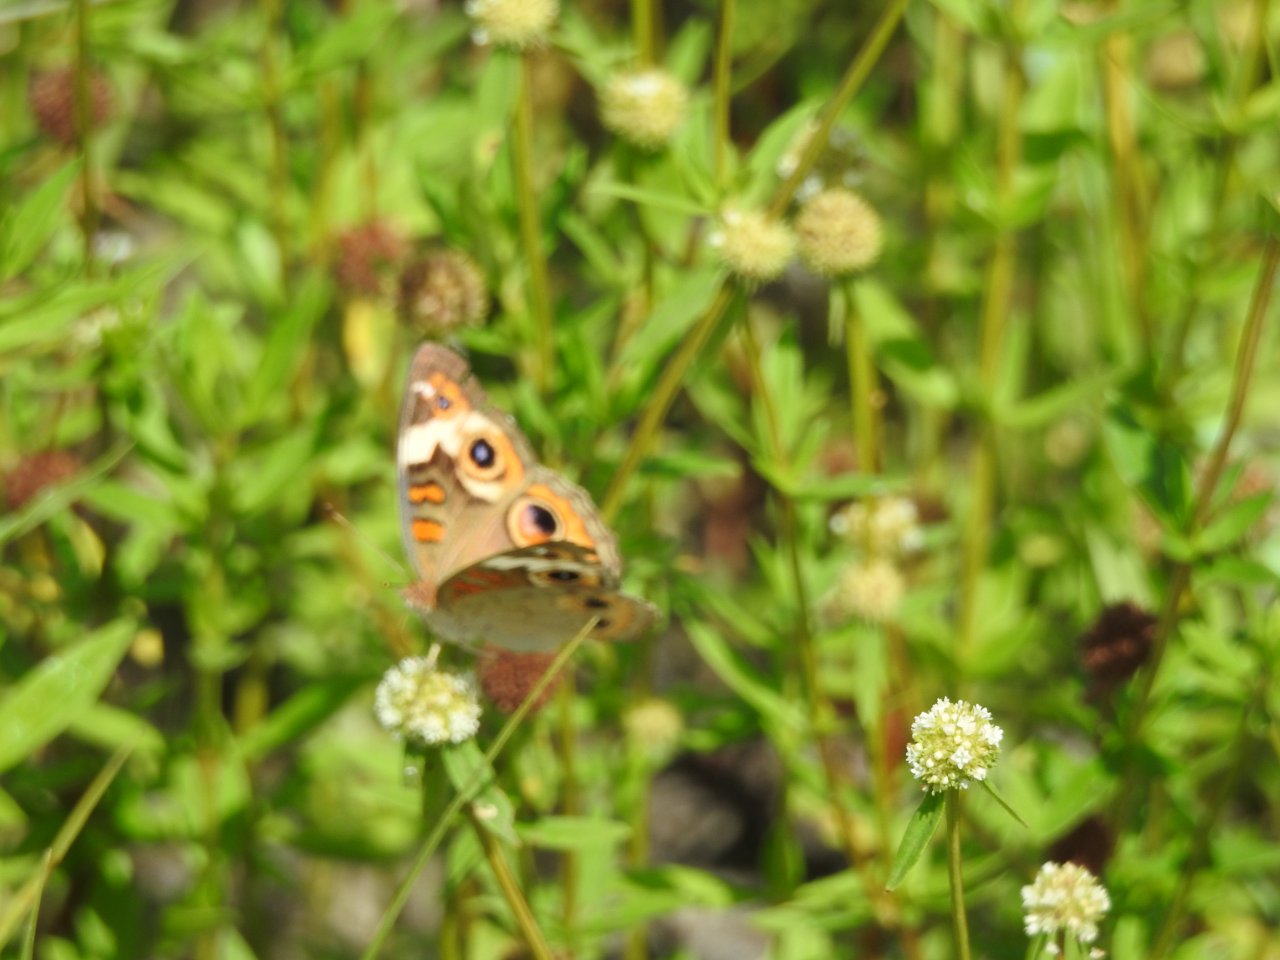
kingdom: Animalia
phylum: Arthropoda
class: Insecta
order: Lepidoptera
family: Nymphalidae
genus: Junonia
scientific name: Junonia coenia
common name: Common Buckeye
